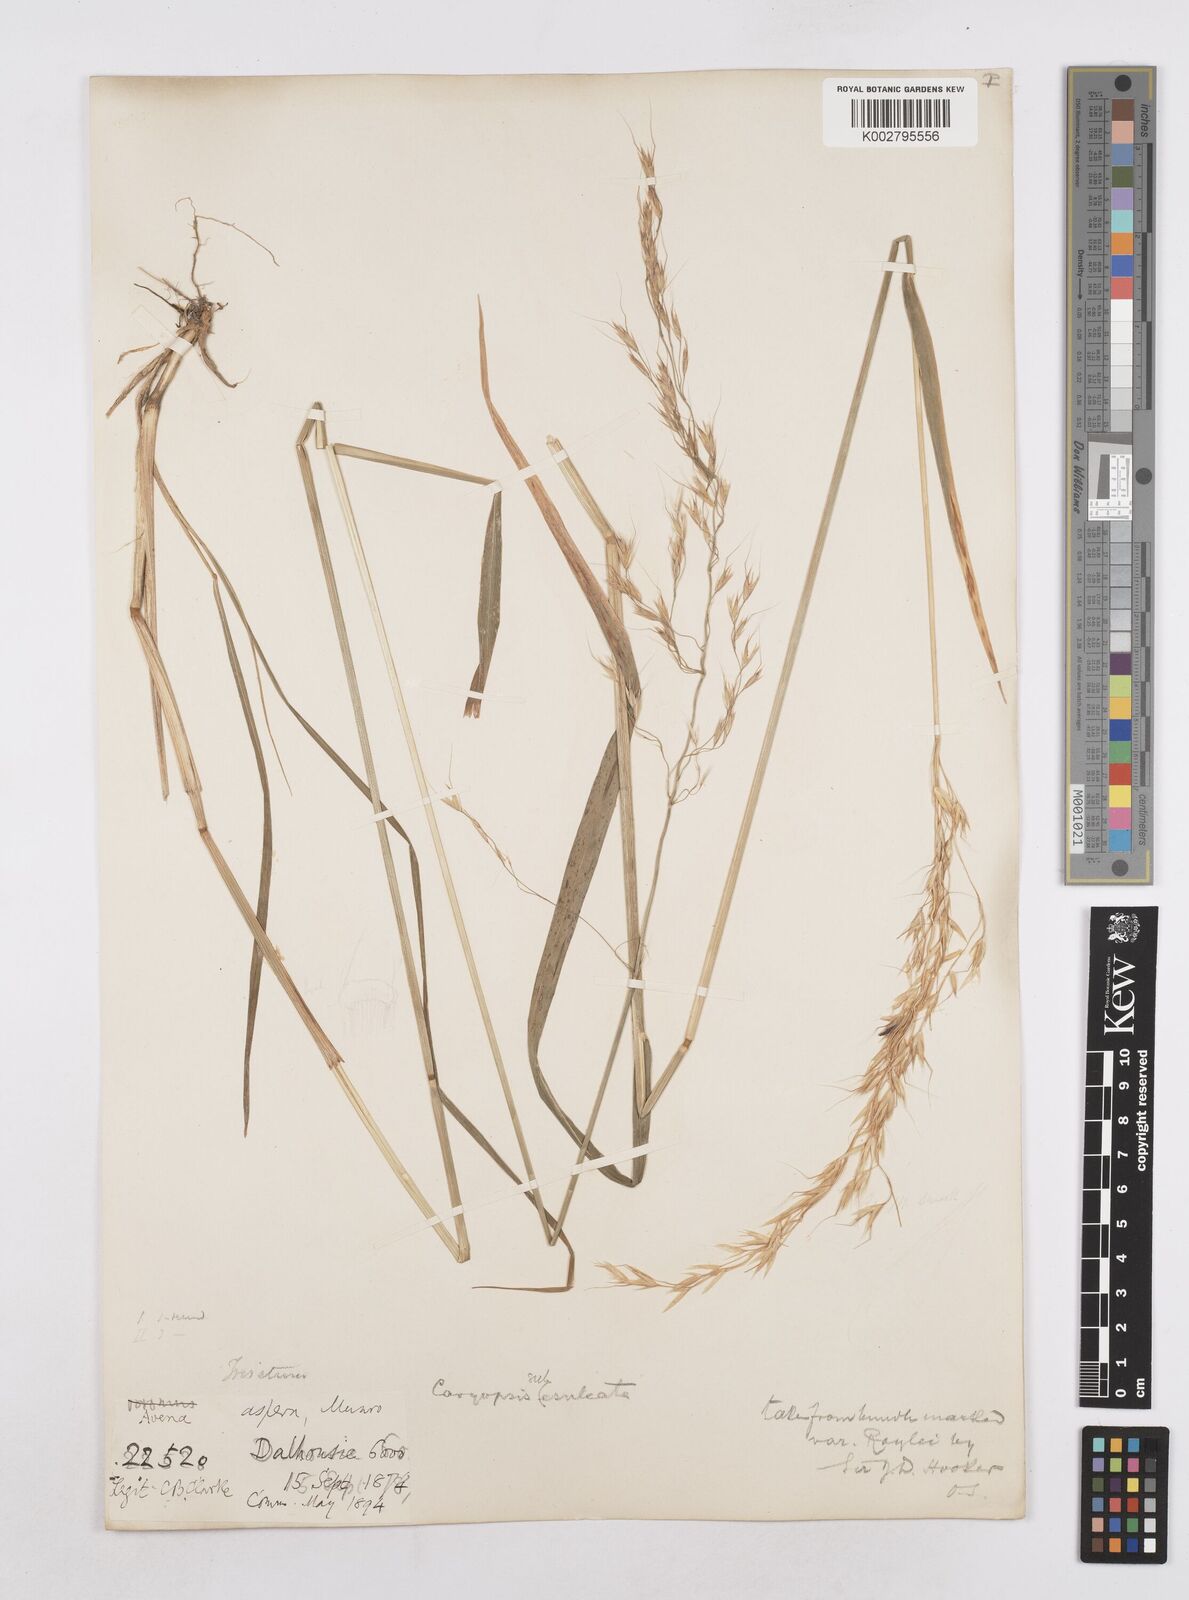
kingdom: Plantae
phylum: Tracheophyta
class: Liliopsida
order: Poales
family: Poaceae
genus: Trisetopsis
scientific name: Trisetopsis junghuhnii
